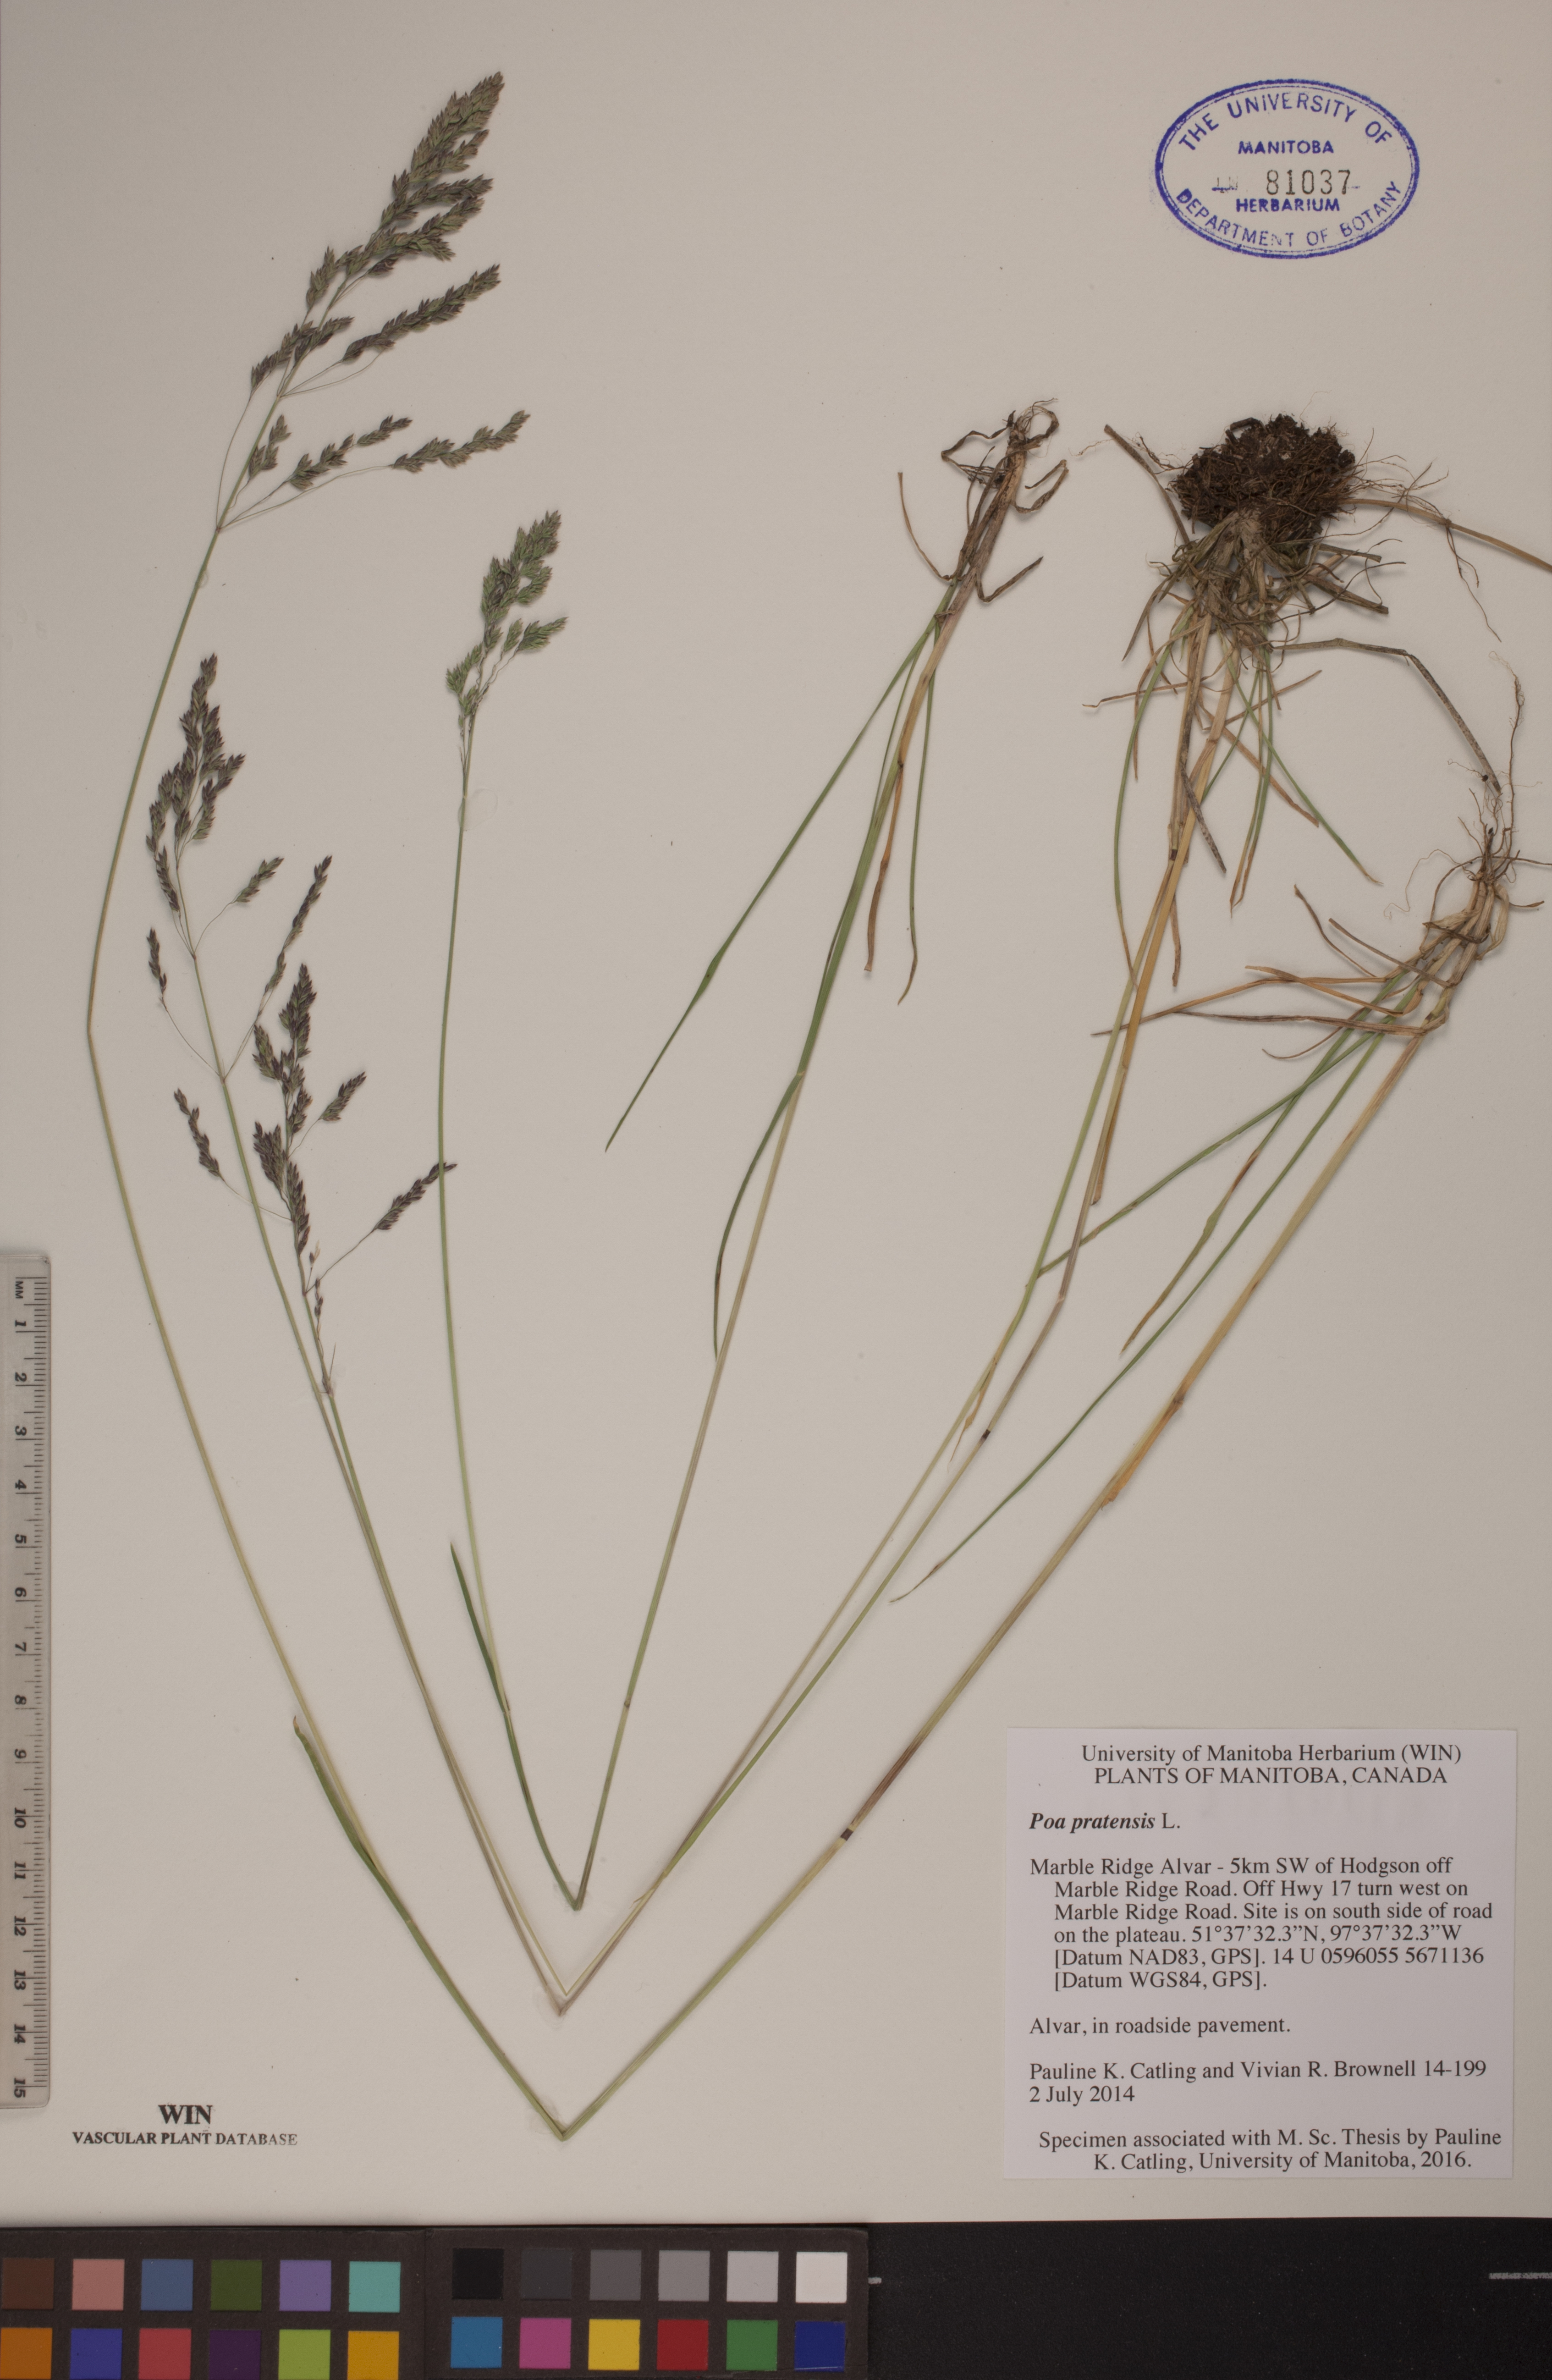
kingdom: Plantae
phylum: Tracheophyta
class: Liliopsida
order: Poales
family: Poaceae
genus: Poa
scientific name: Poa pratensis
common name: Kentucky bluegrass
